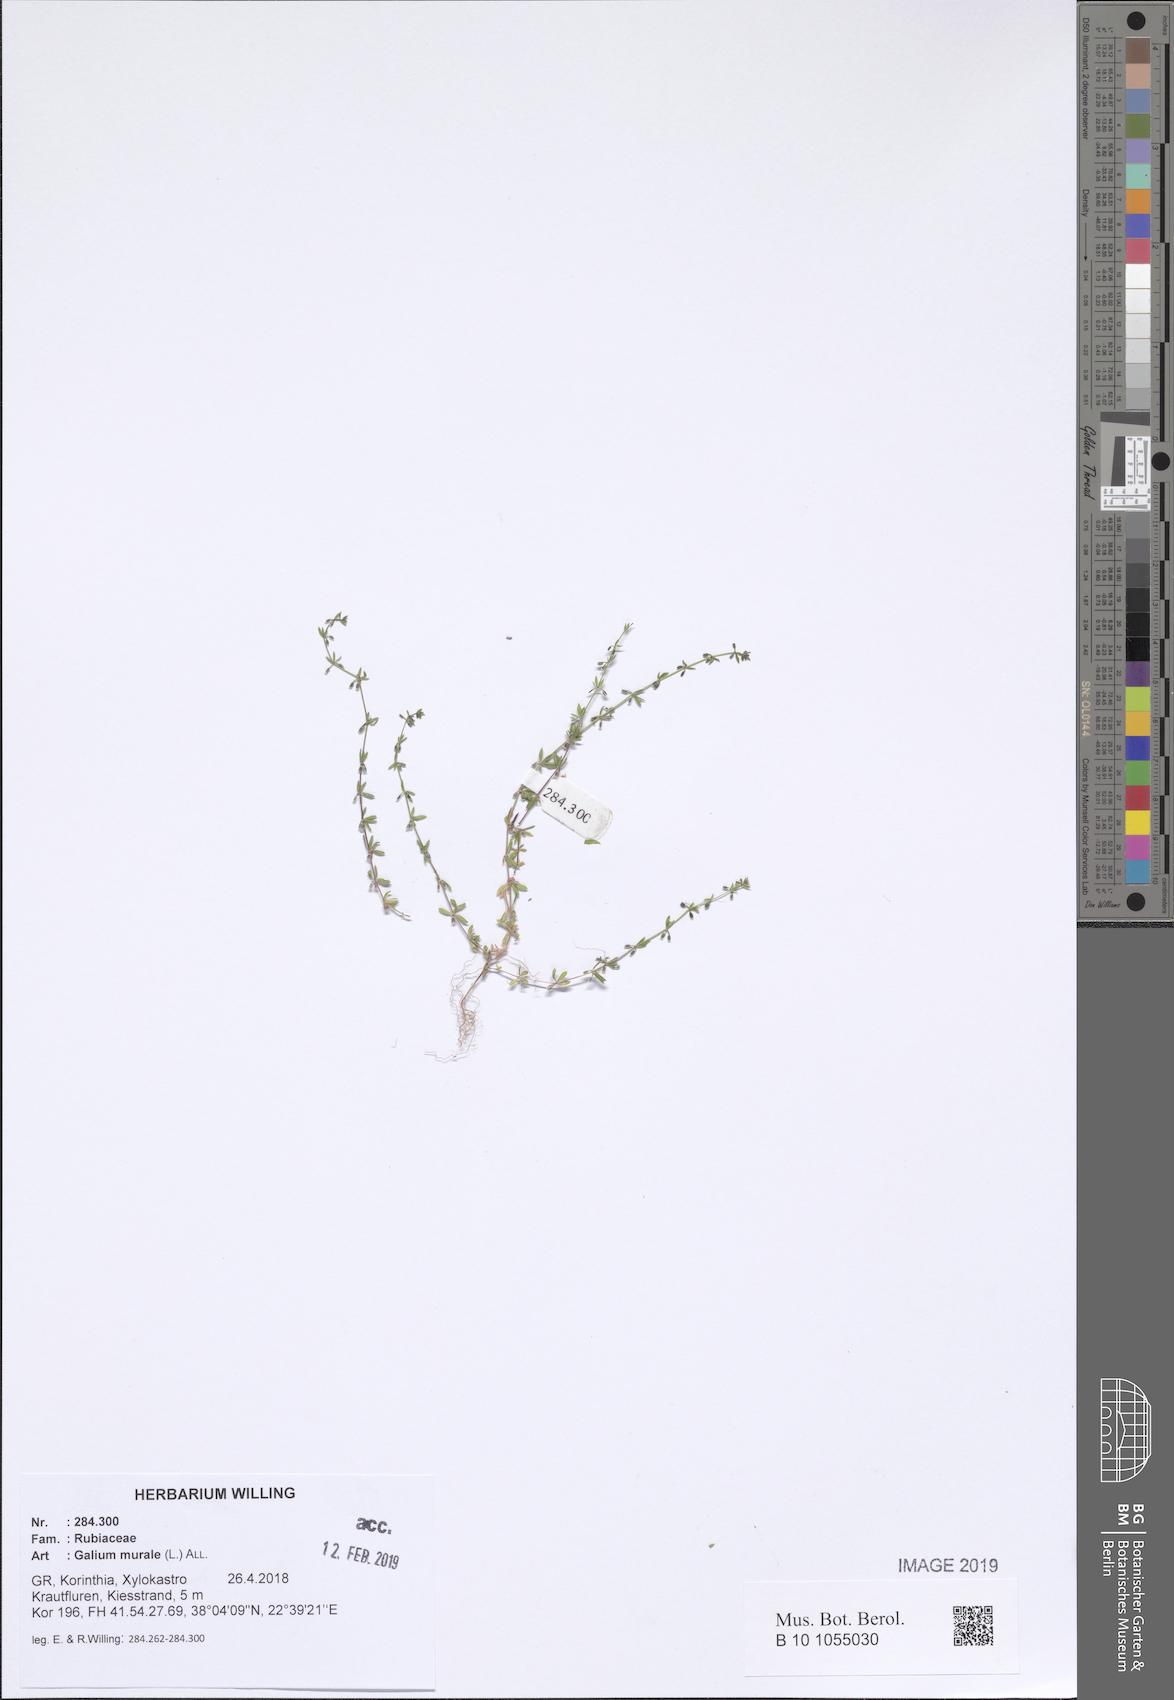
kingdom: Plantae
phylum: Tracheophyta
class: Magnoliopsida
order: Gentianales
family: Rubiaceae
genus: Galium
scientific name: Galium murale
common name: Yellow wall bedstraw
